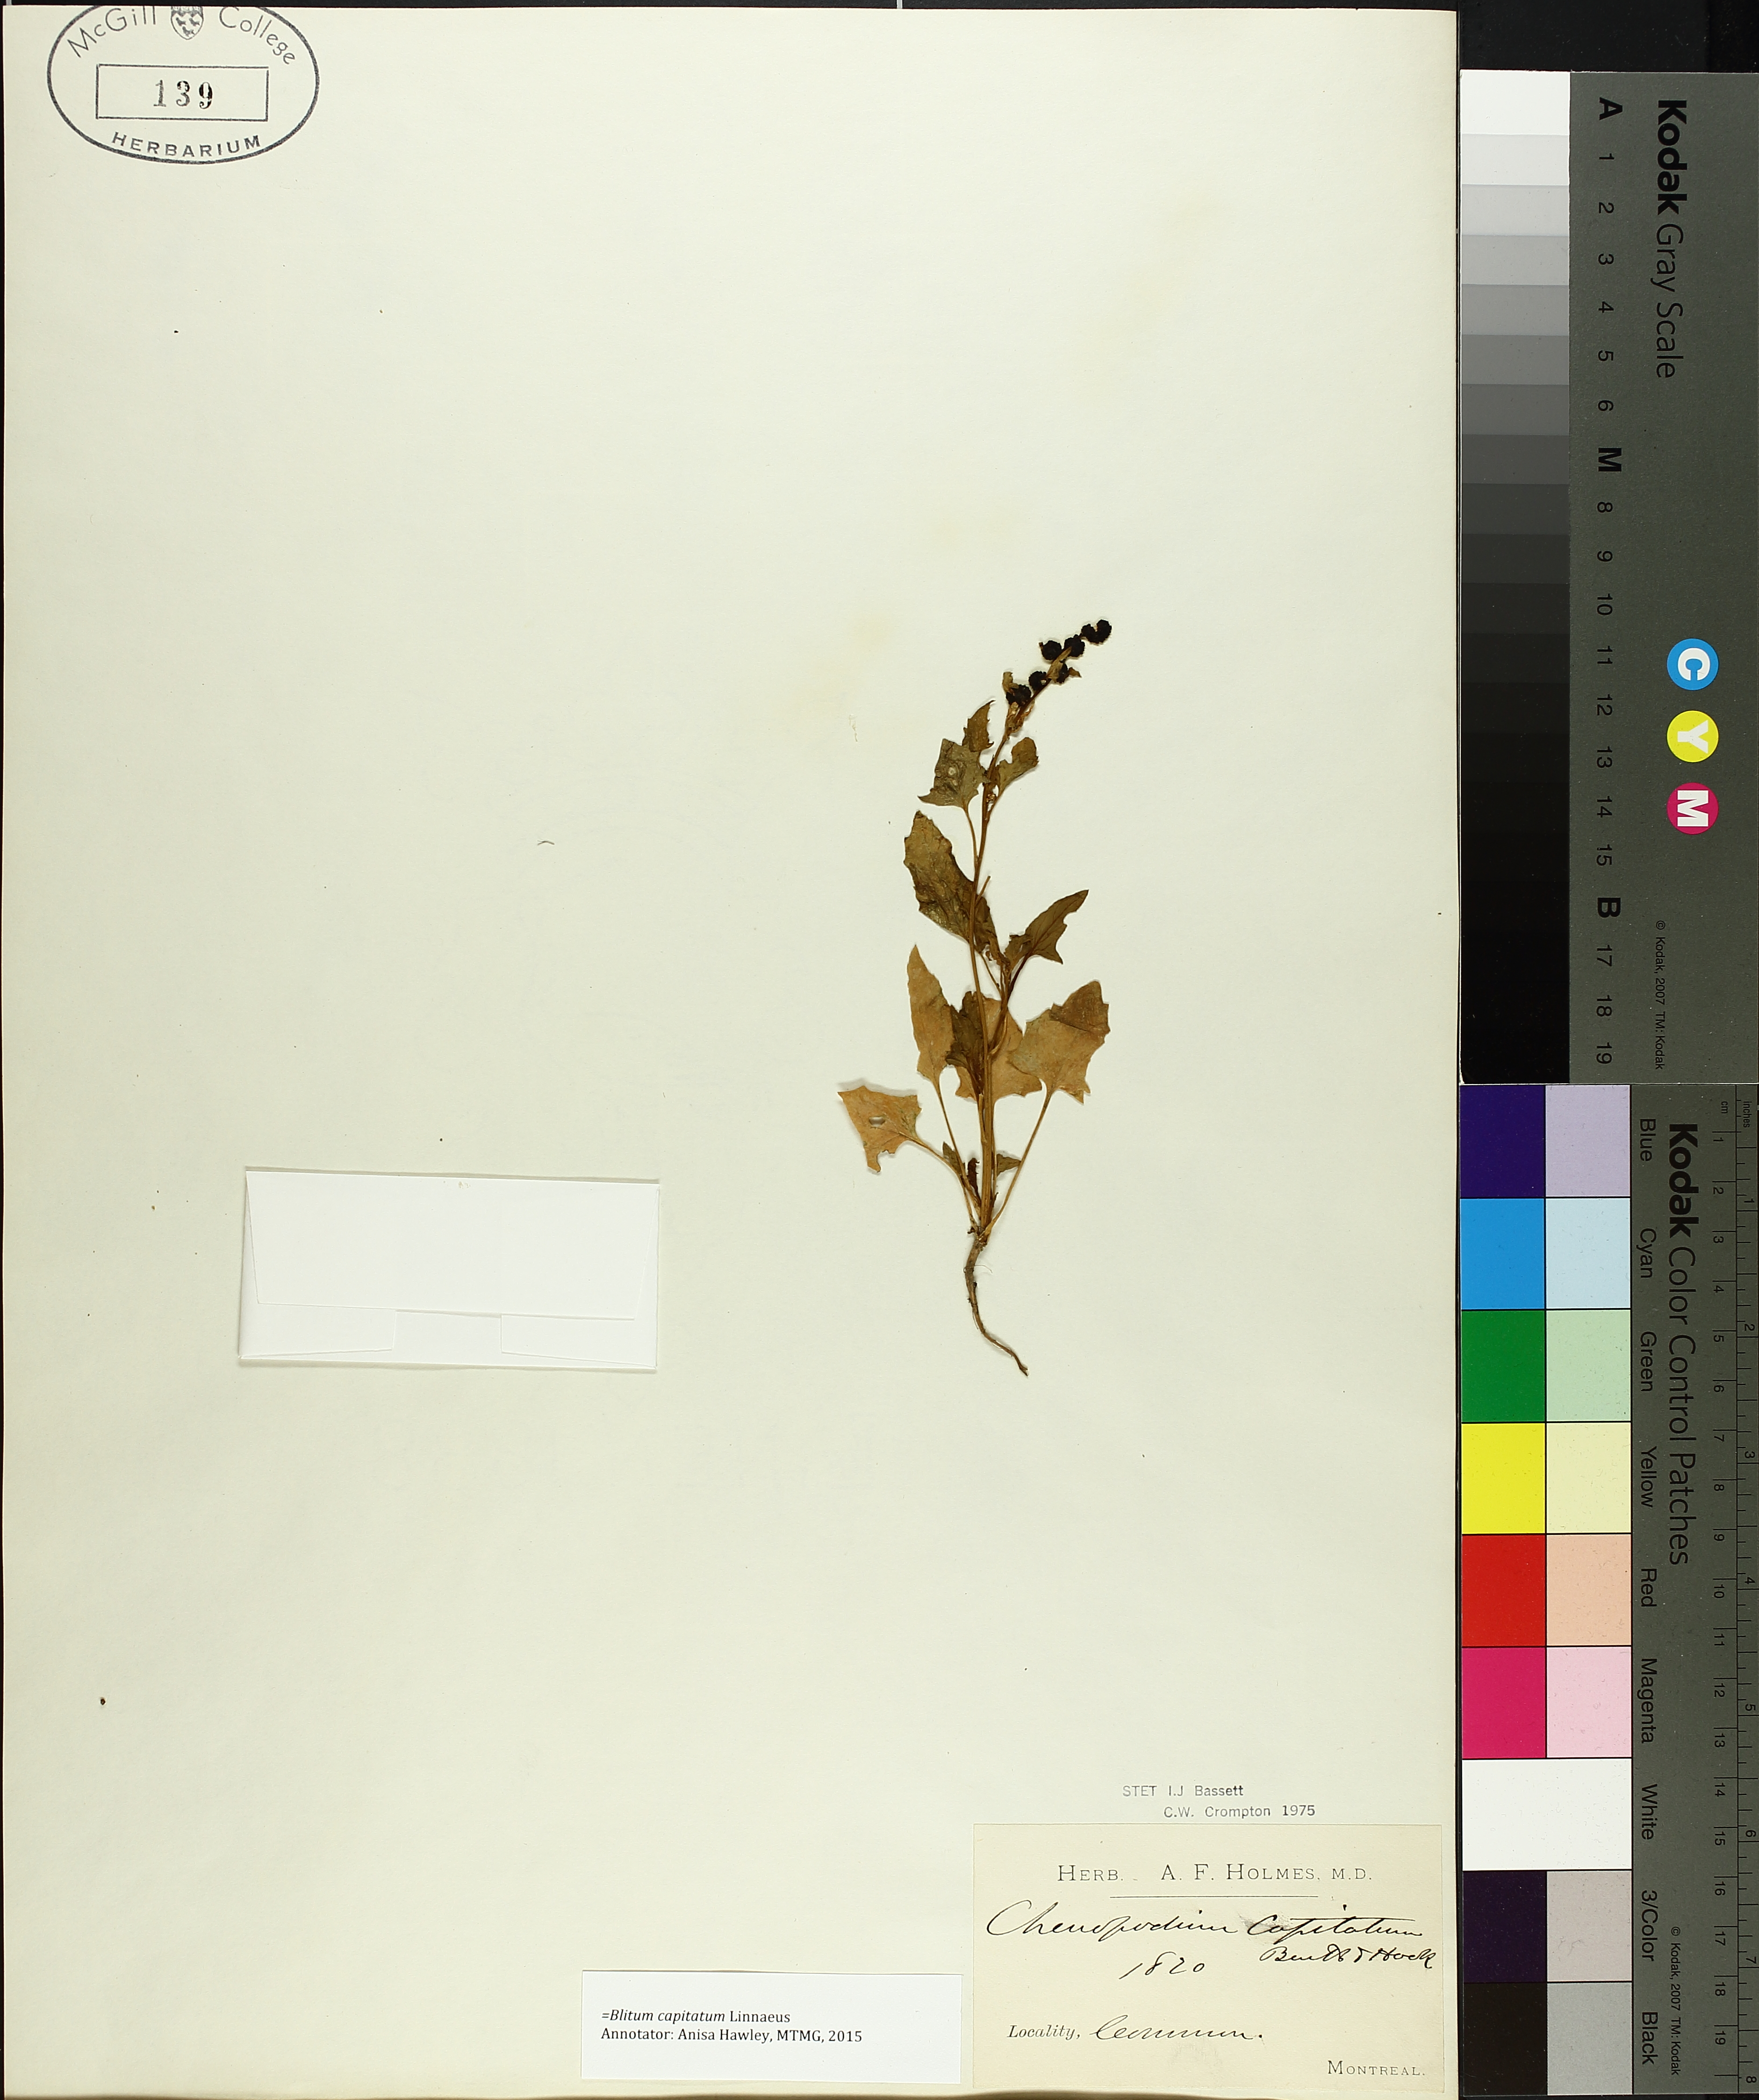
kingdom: Plantae
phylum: Tracheophyta
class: Magnoliopsida
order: Caryophyllales
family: Amaranthaceae
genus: Blitum
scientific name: Blitum capitatum
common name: Strawberry-blight
